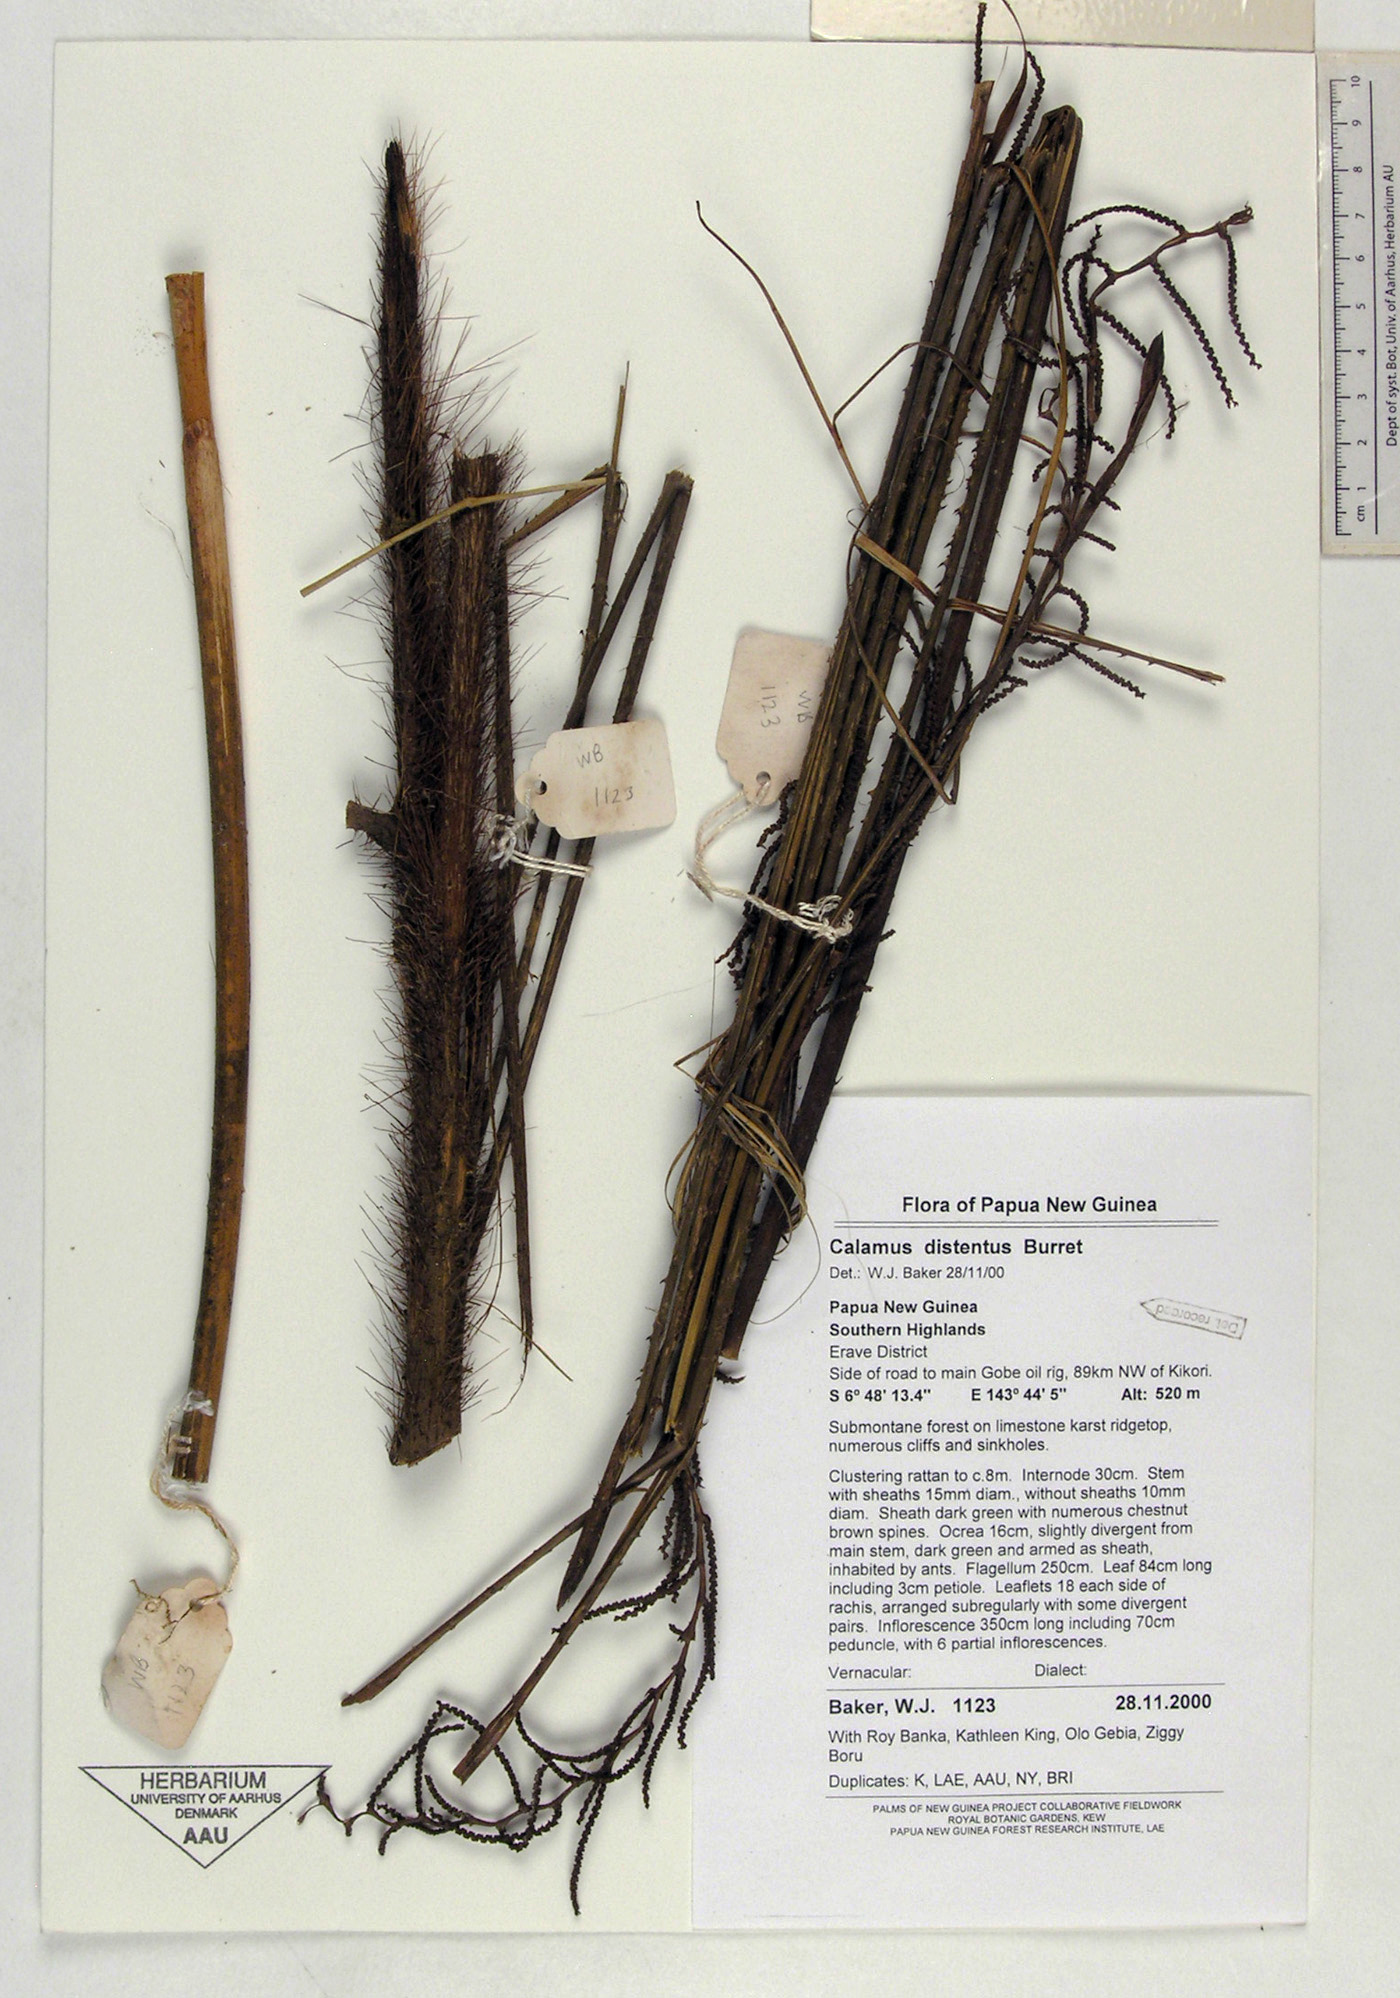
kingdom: Plantae
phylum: Tracheophyta
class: Liliopsida
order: Arecales
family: Arecaceae
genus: Calamus
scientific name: Calamus distentus
